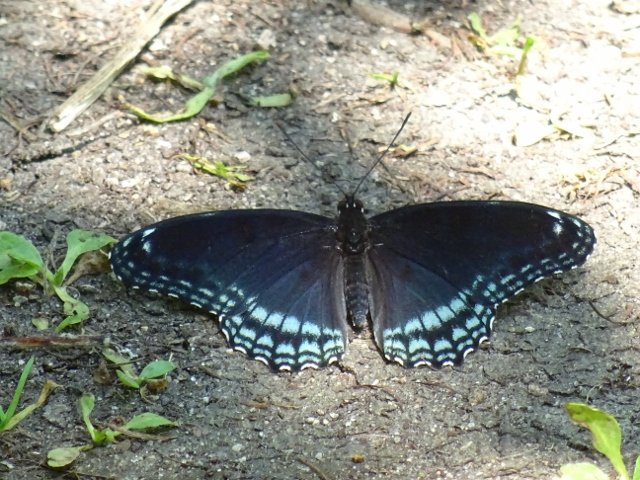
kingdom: Animalia
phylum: Arthropoda
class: Insecta
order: Lepidoptera
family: Nymphalidae
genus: Limenitis
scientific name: Limenitis astyanax
